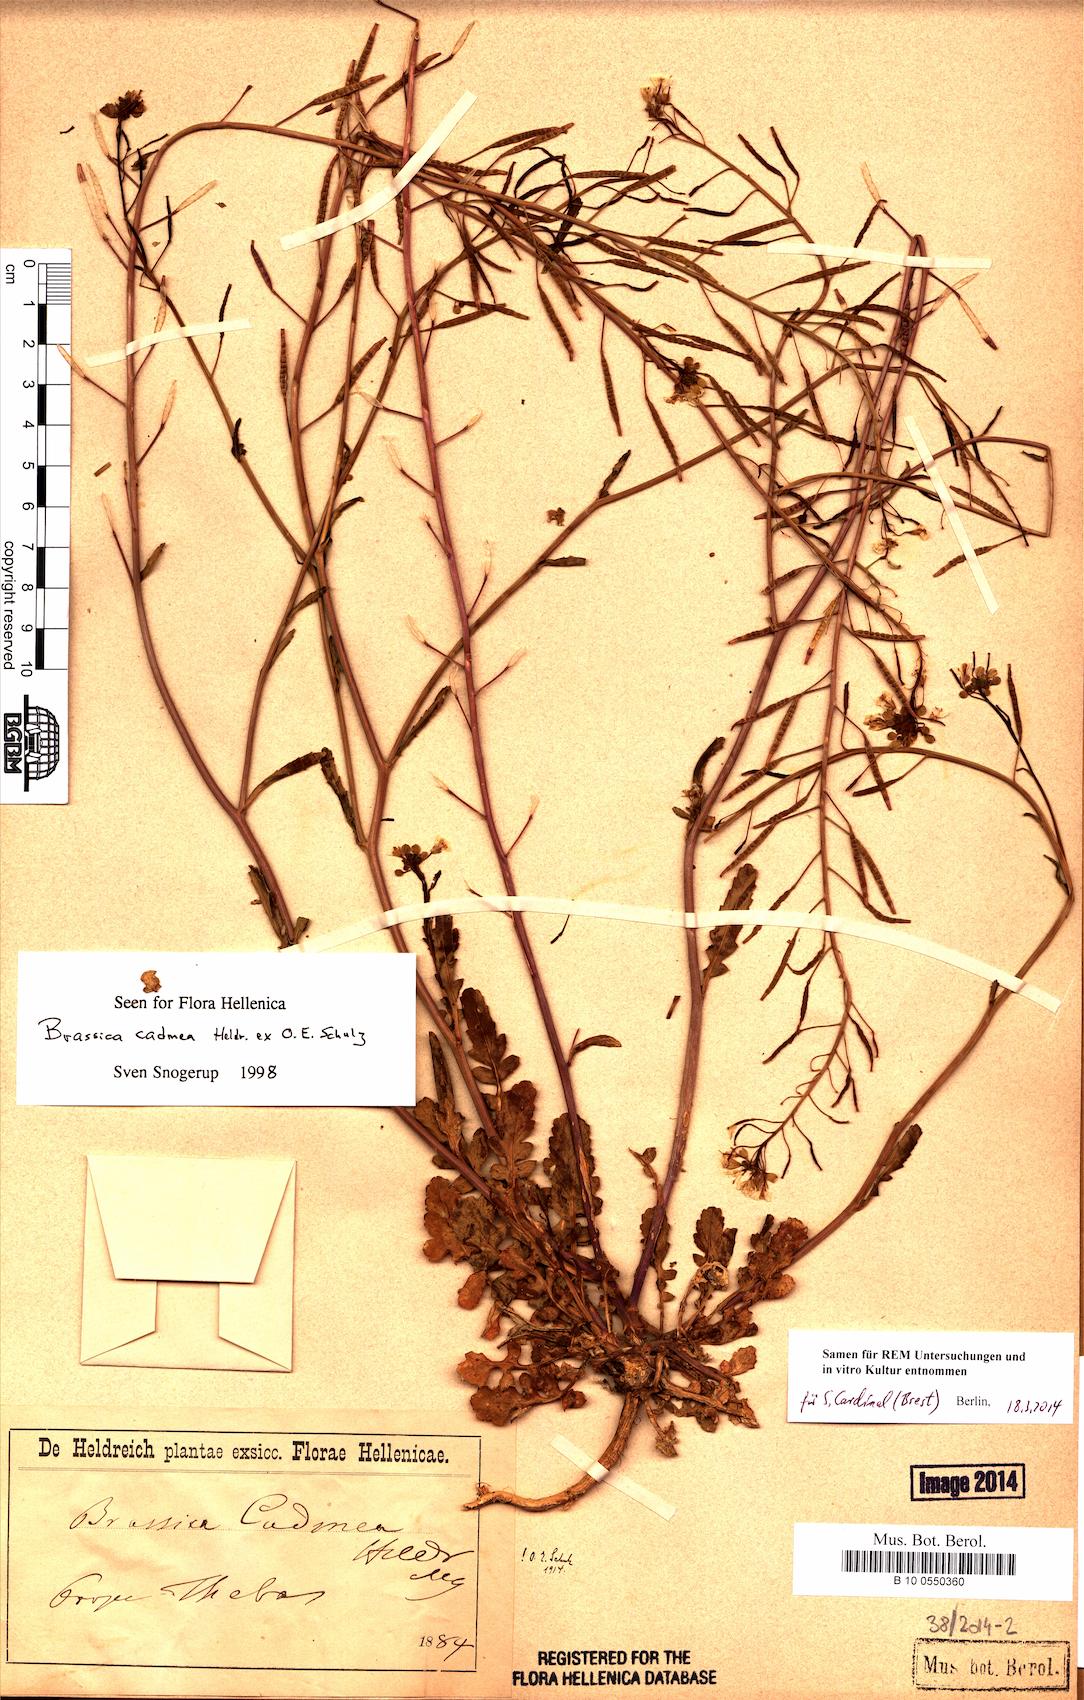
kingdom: Plantae
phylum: Tracheophyta
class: Magnoliopsida
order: Brassicales
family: Brassicaceae
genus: Brassica
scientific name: Brassica cadmea
